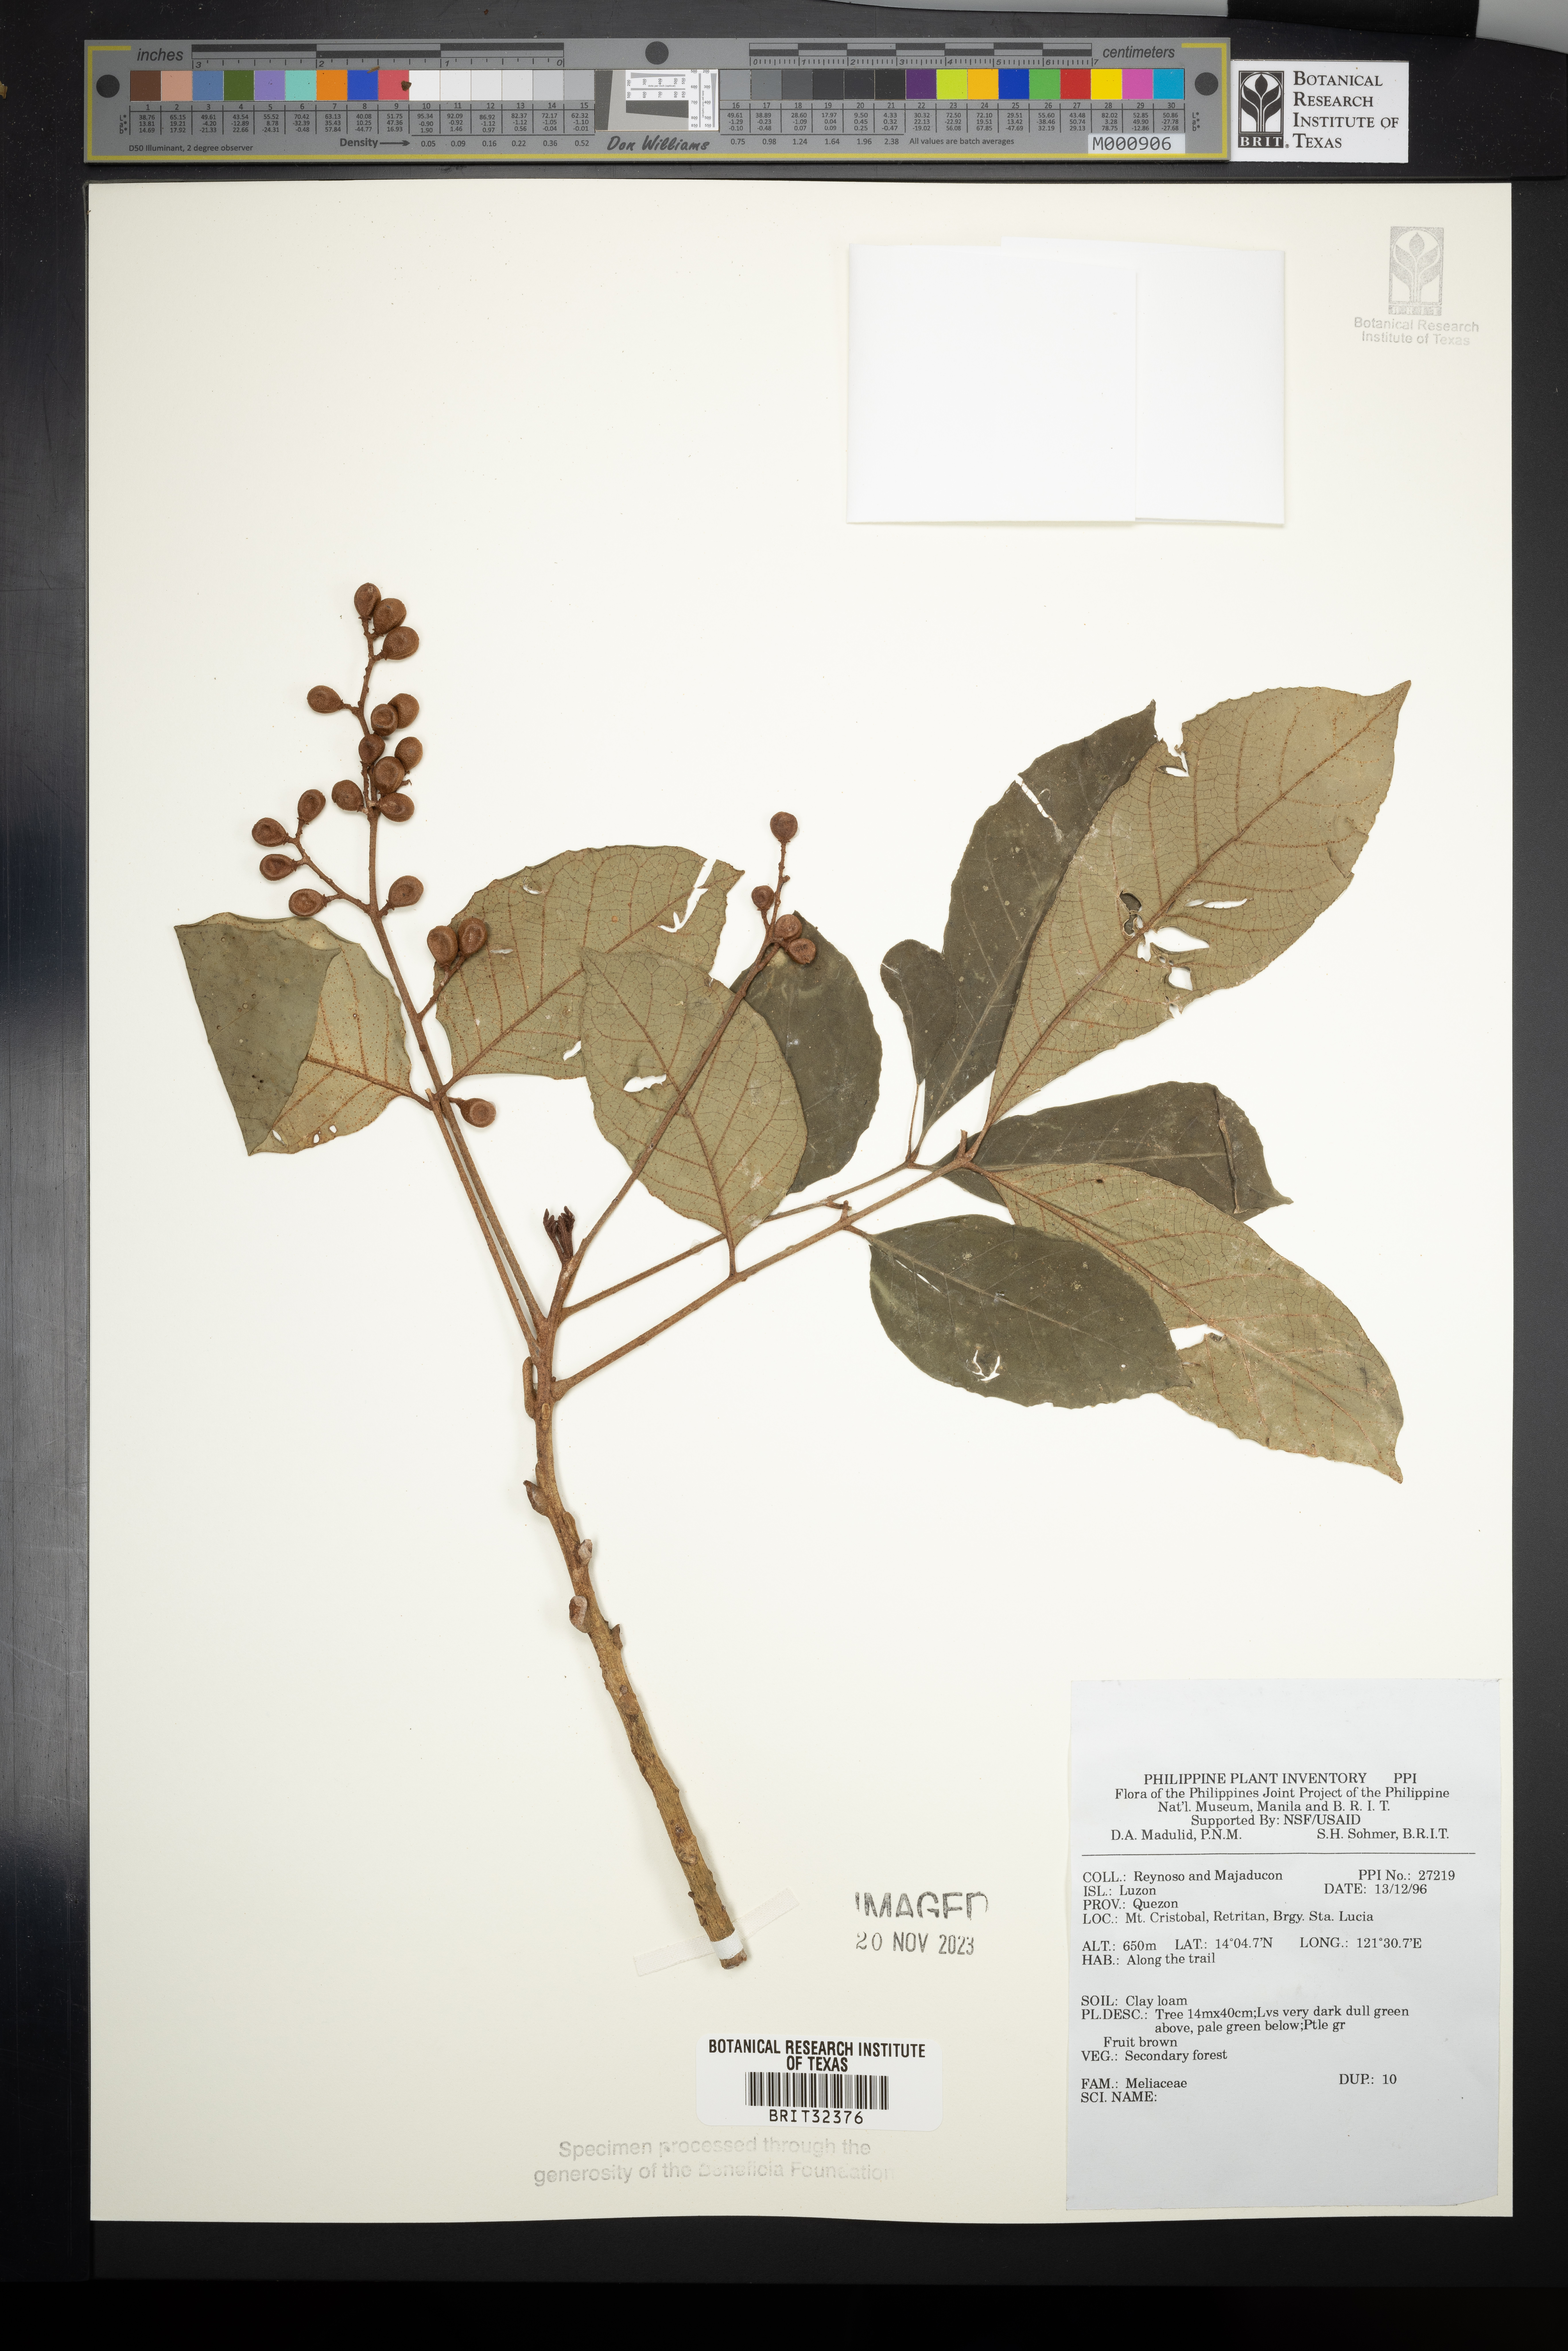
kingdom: Plantae
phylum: Tracheophyta
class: Magnoliopsida
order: Sapindales
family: Meliaceae
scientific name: Meliaceae
